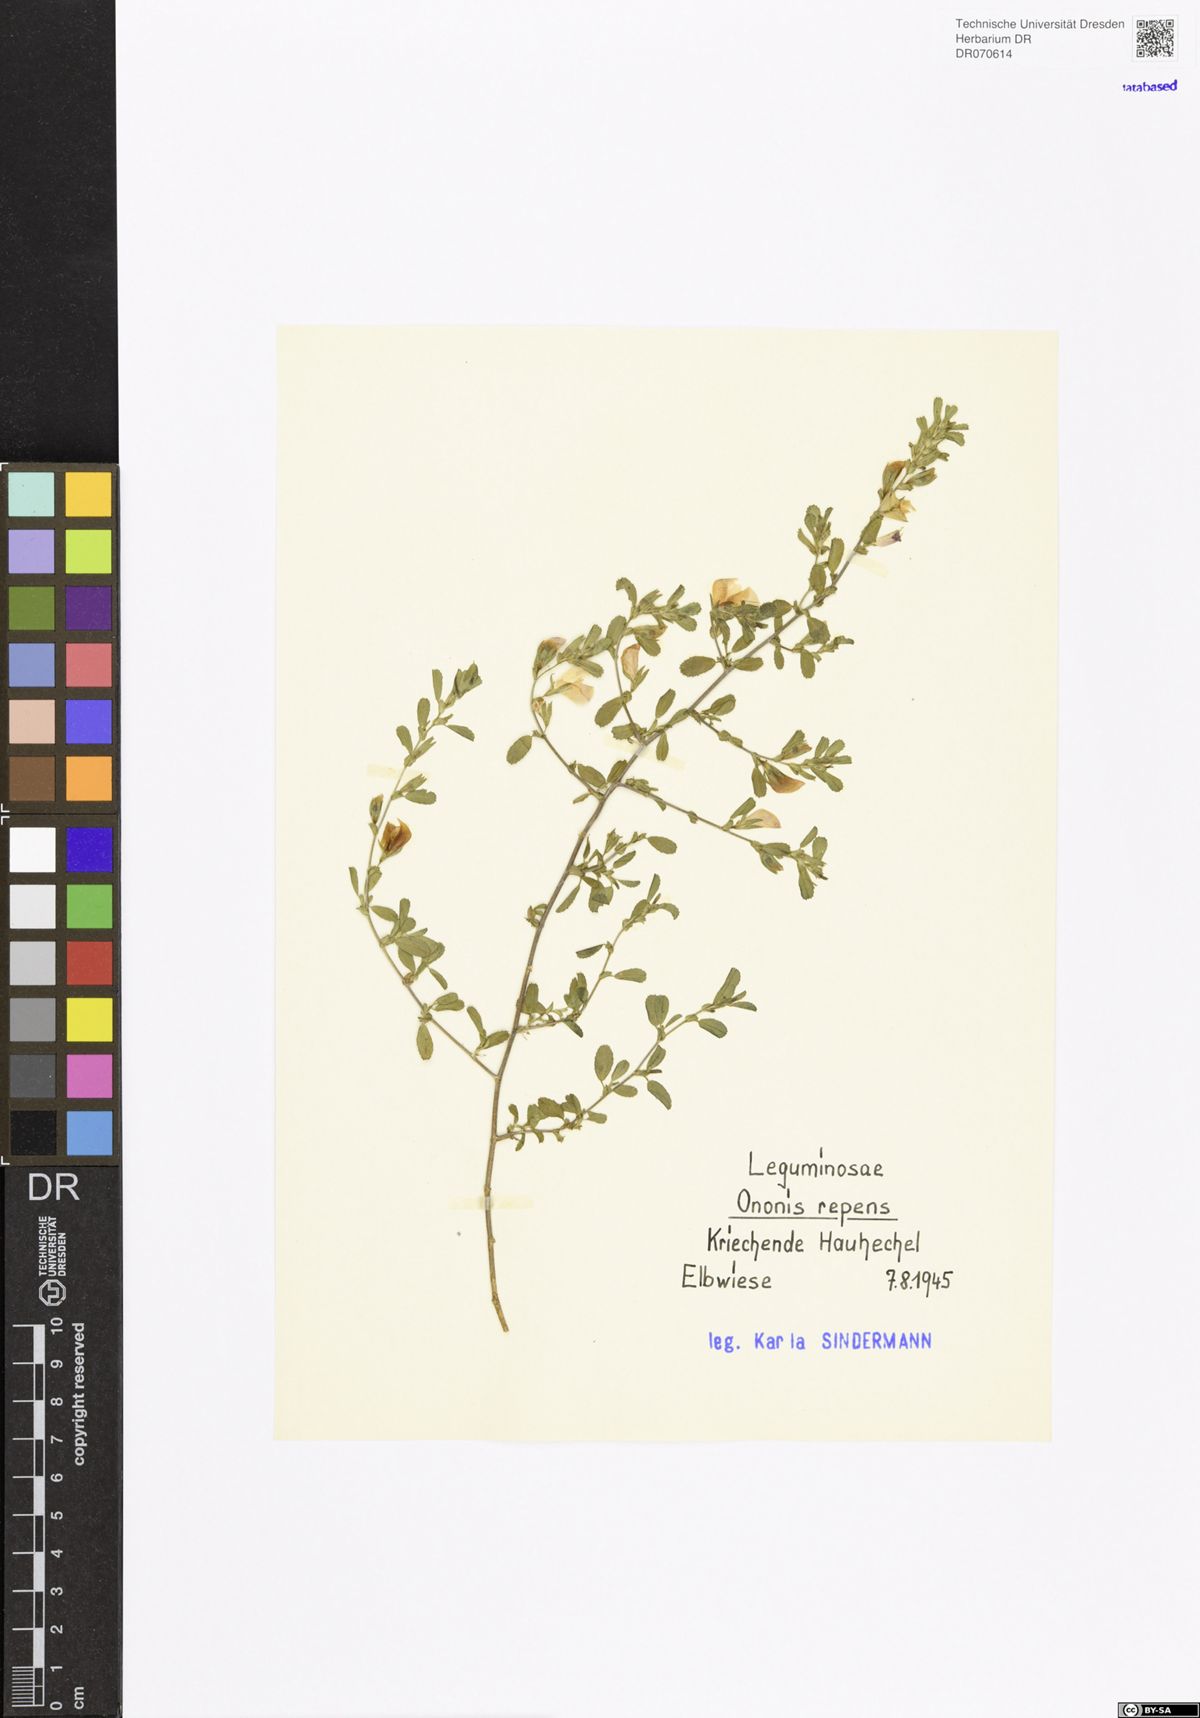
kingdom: Plantae
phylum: Tracheophyta
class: Magnoliopsida
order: Fabales
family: Fabaceae
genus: Ononis
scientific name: Ononis spinosa
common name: Spiny restharrow
